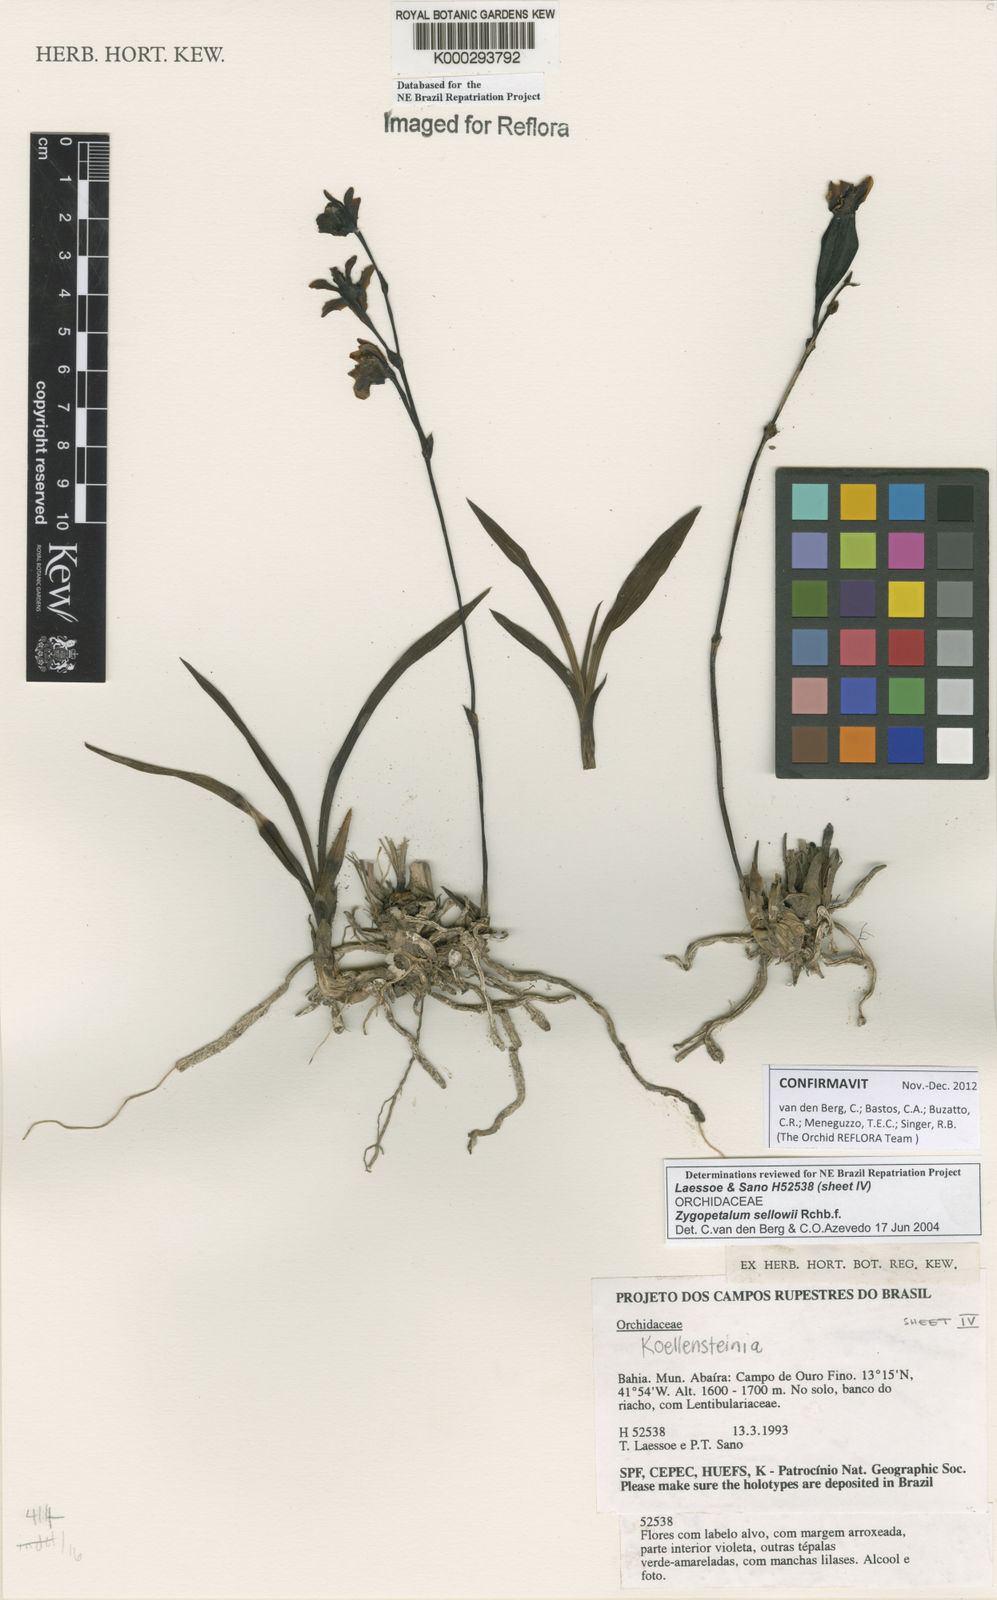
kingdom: Plantae
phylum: Tracheophyta
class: Liliopsida
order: Asparagales
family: Orchidaceae
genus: Zygopetalum
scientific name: Zygopetalum sellowii
